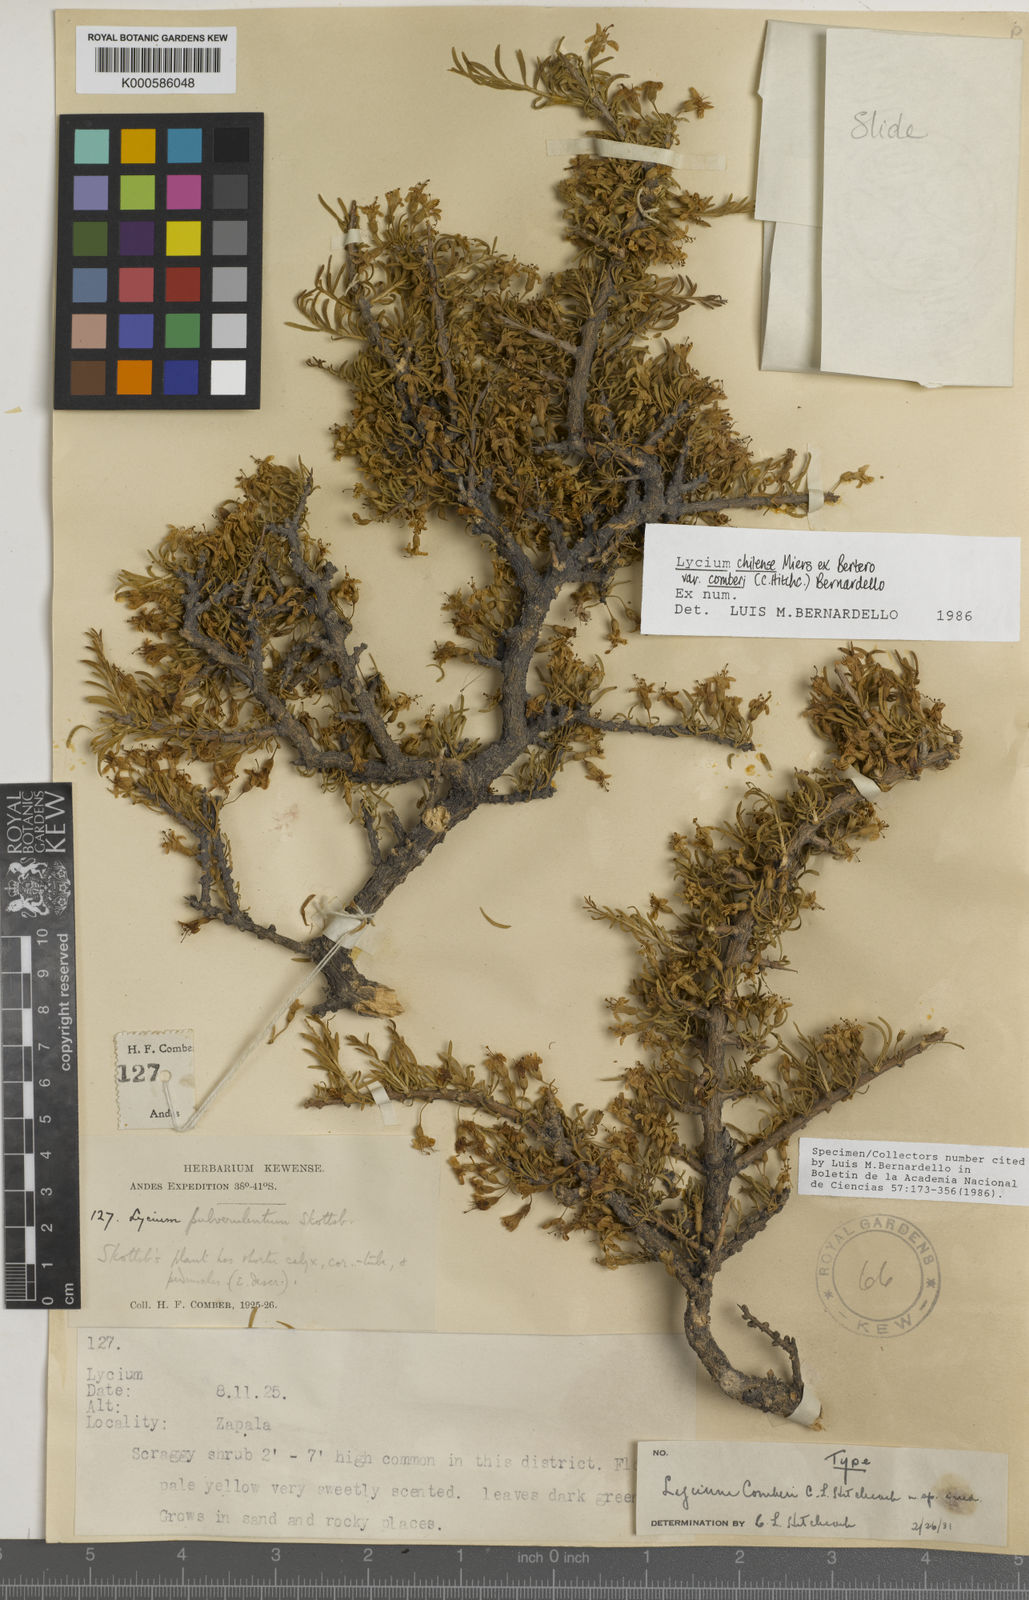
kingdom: Plantae
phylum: Tracheophyta
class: Magnoliopsida
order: Solanales
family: Solanaceae
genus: Lycium
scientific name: Lycium chilense
